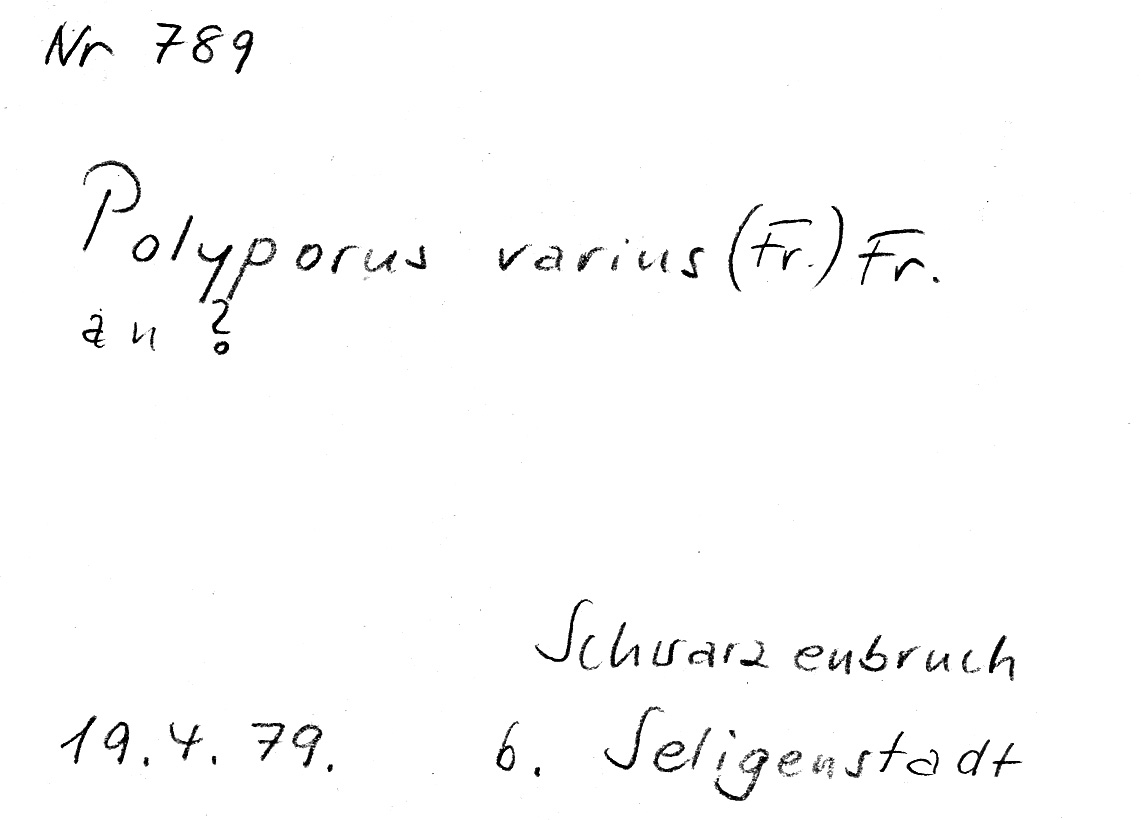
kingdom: Fungi
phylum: Basidiomycota
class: Agaricomycetes
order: Polyporales
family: Polyporaceae
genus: Cerioporus
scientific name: Cerioporus varius
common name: Elegant polypore
